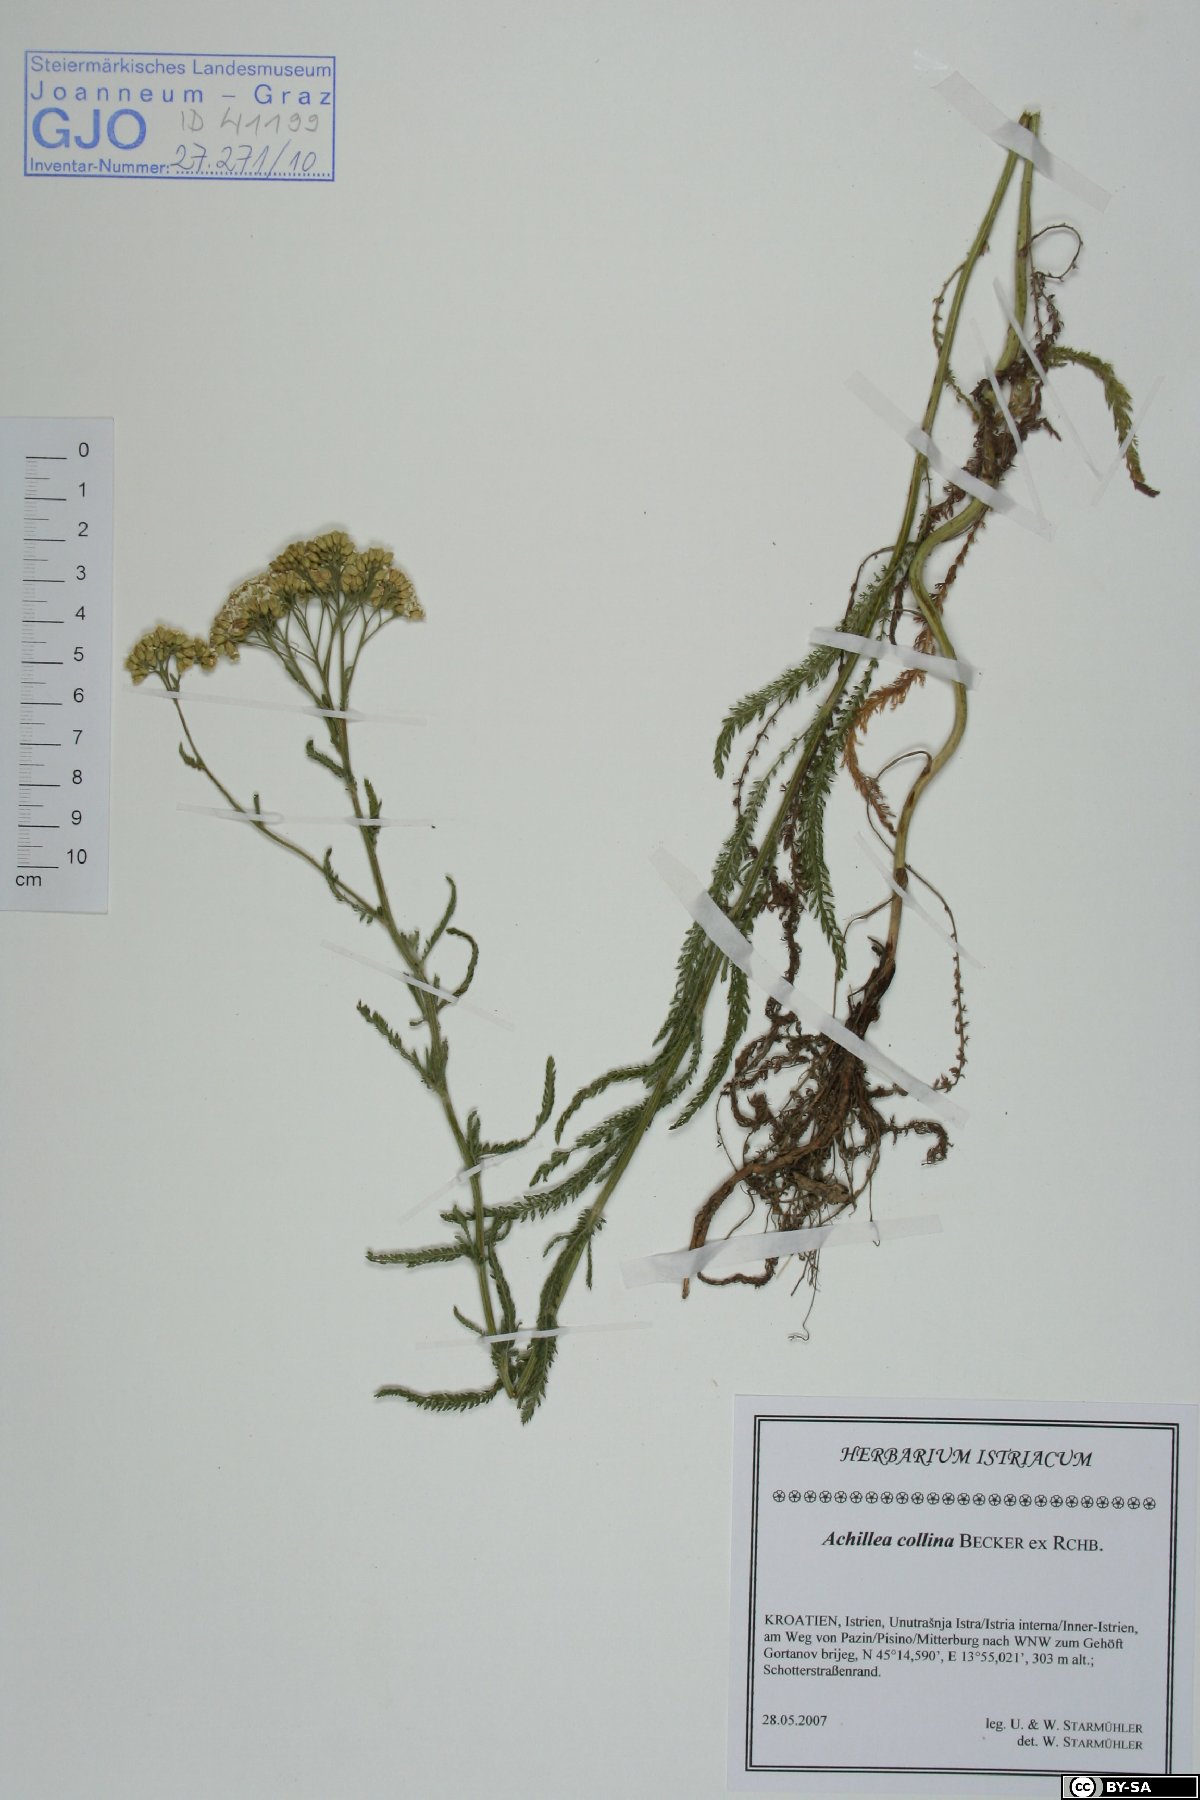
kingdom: Plantae
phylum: Tracheophyta
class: Magnoliopsida
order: Asterales
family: Asteraceae
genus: Achillea
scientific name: Achillea collina
